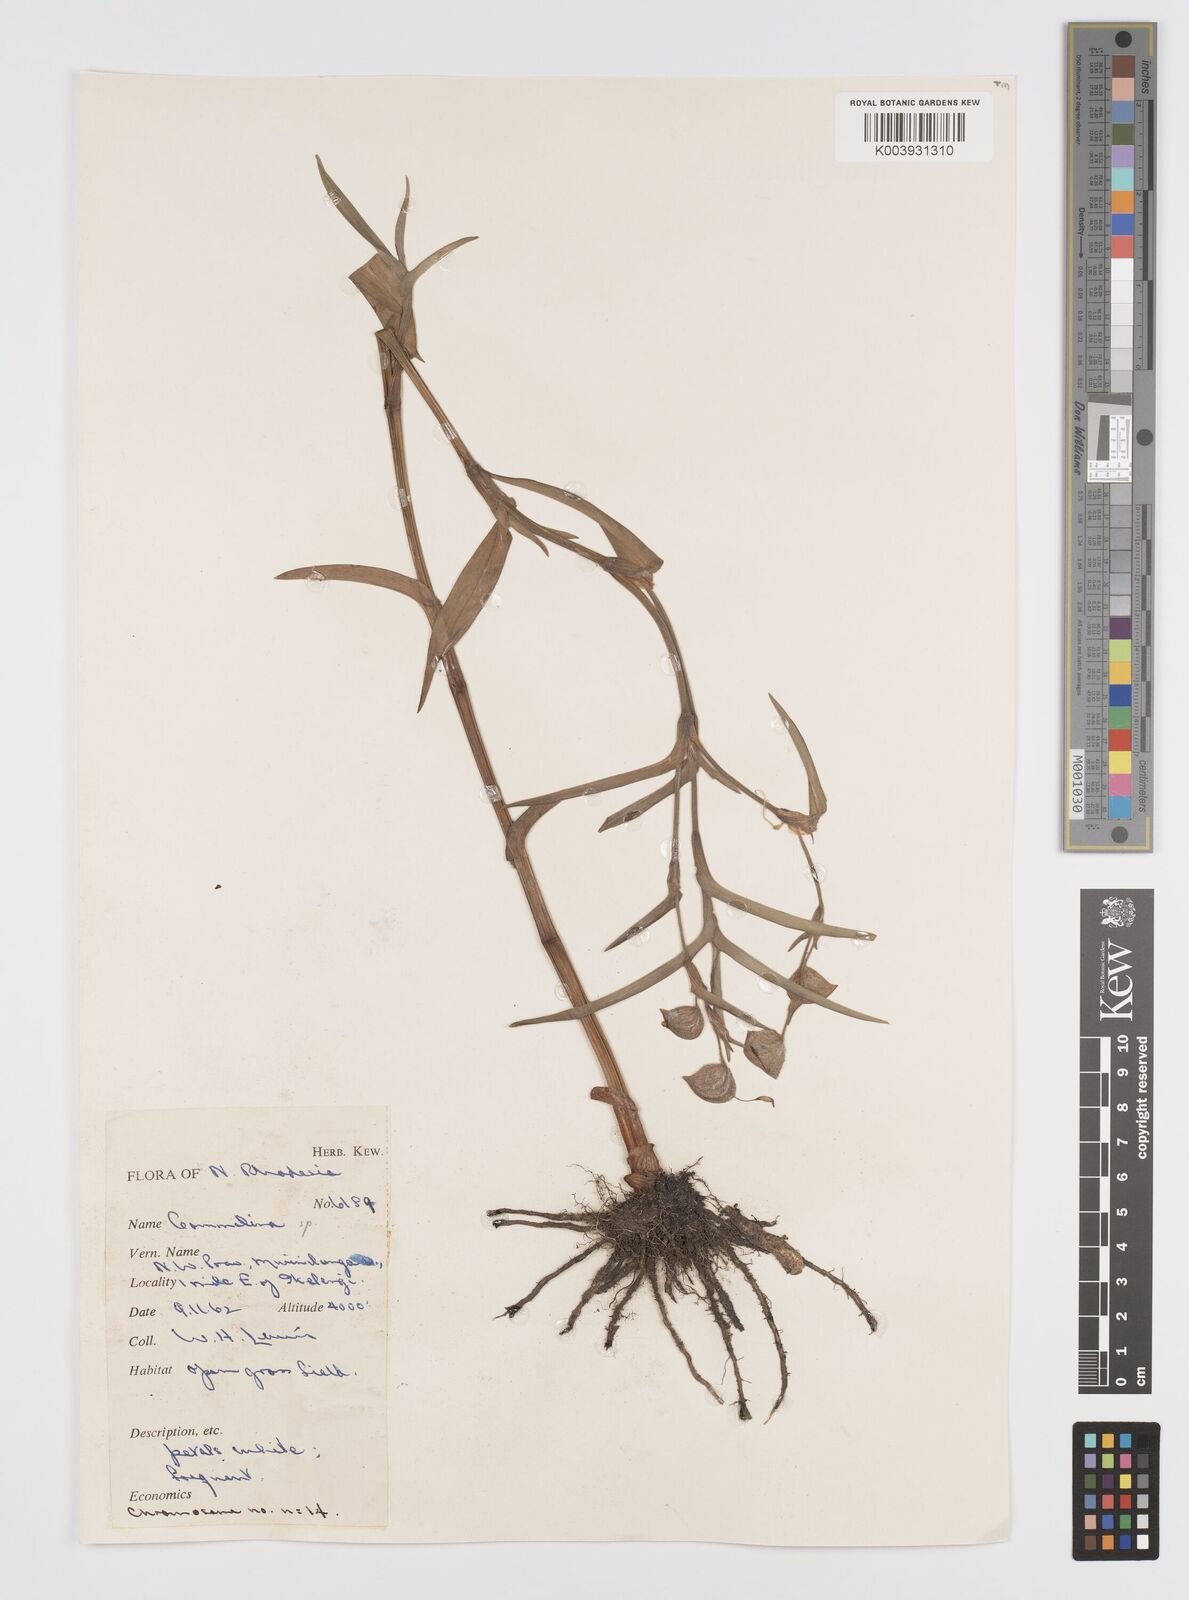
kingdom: Plantae
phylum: Tracheophyta
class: Liliopsida
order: Commelinales
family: Commelinaceae
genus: Commelina
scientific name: Commelina velutina
